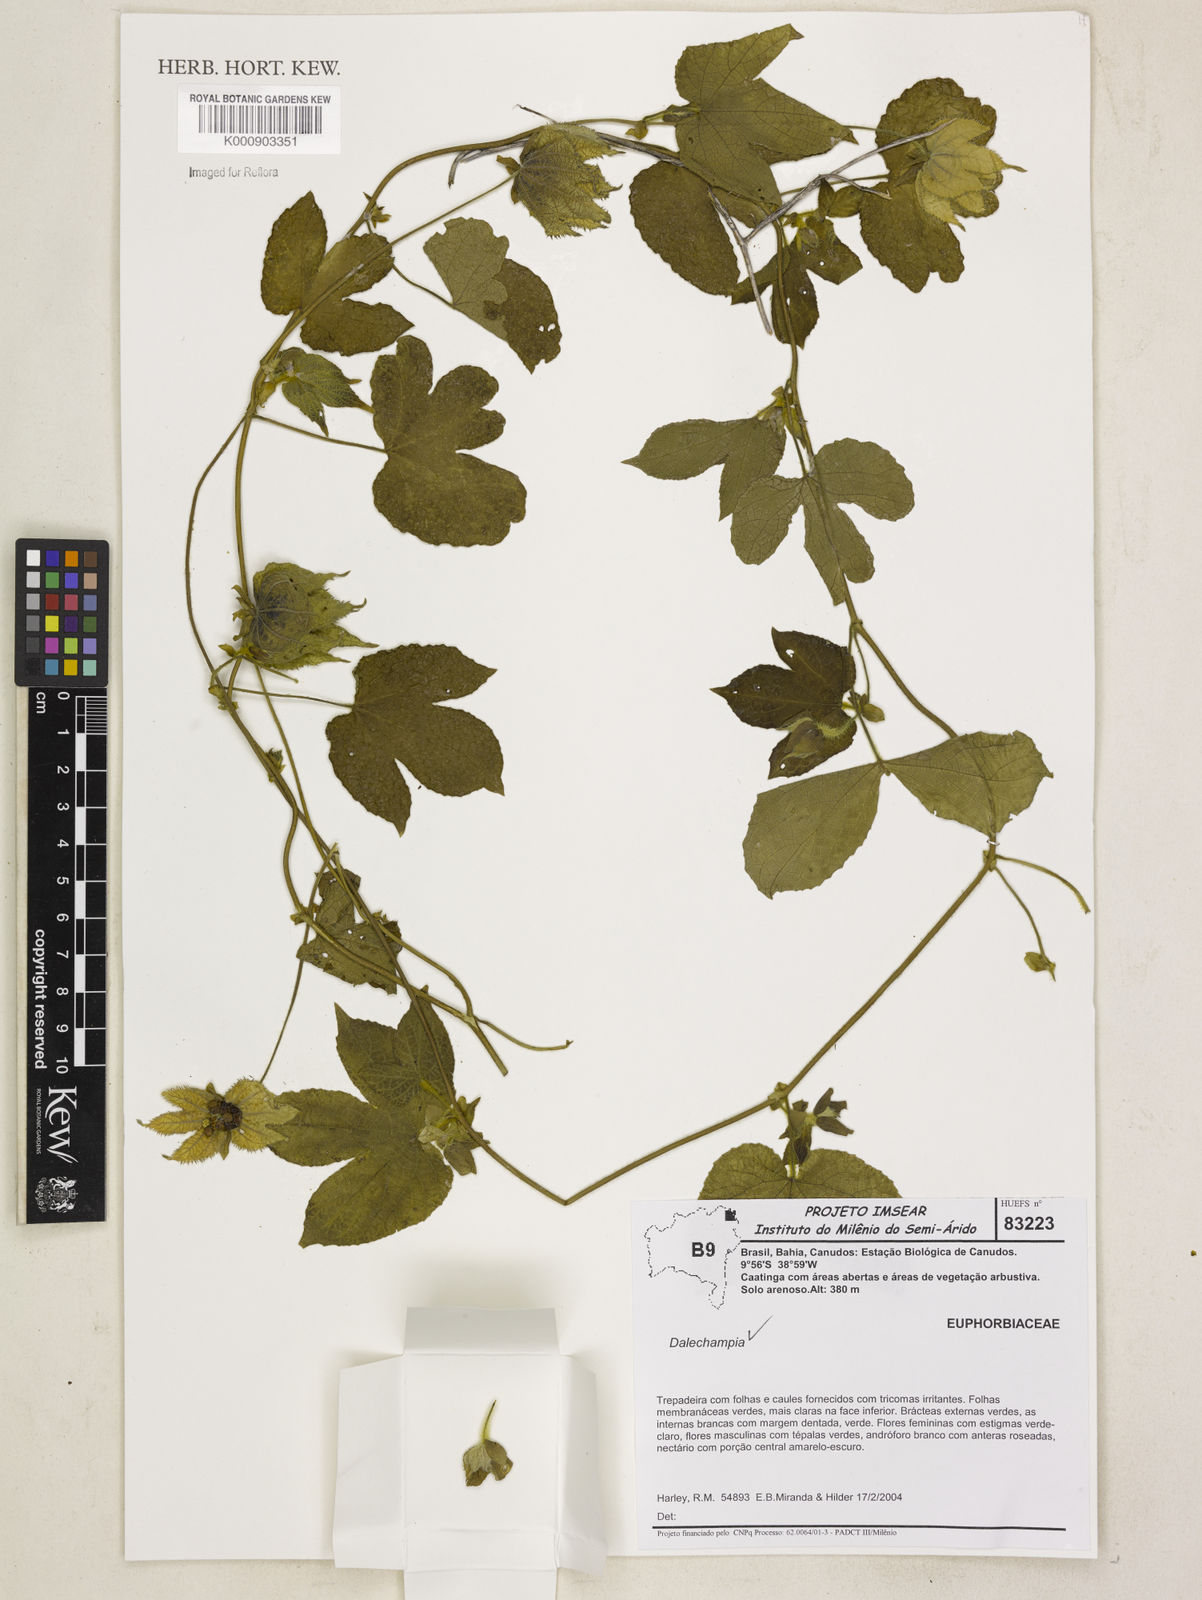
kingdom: Plantae
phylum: Tracheophyta
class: Magnoliopsida
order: Malpighiales
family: Euphorbiaceae
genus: Dalechampia
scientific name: Dalechampia
